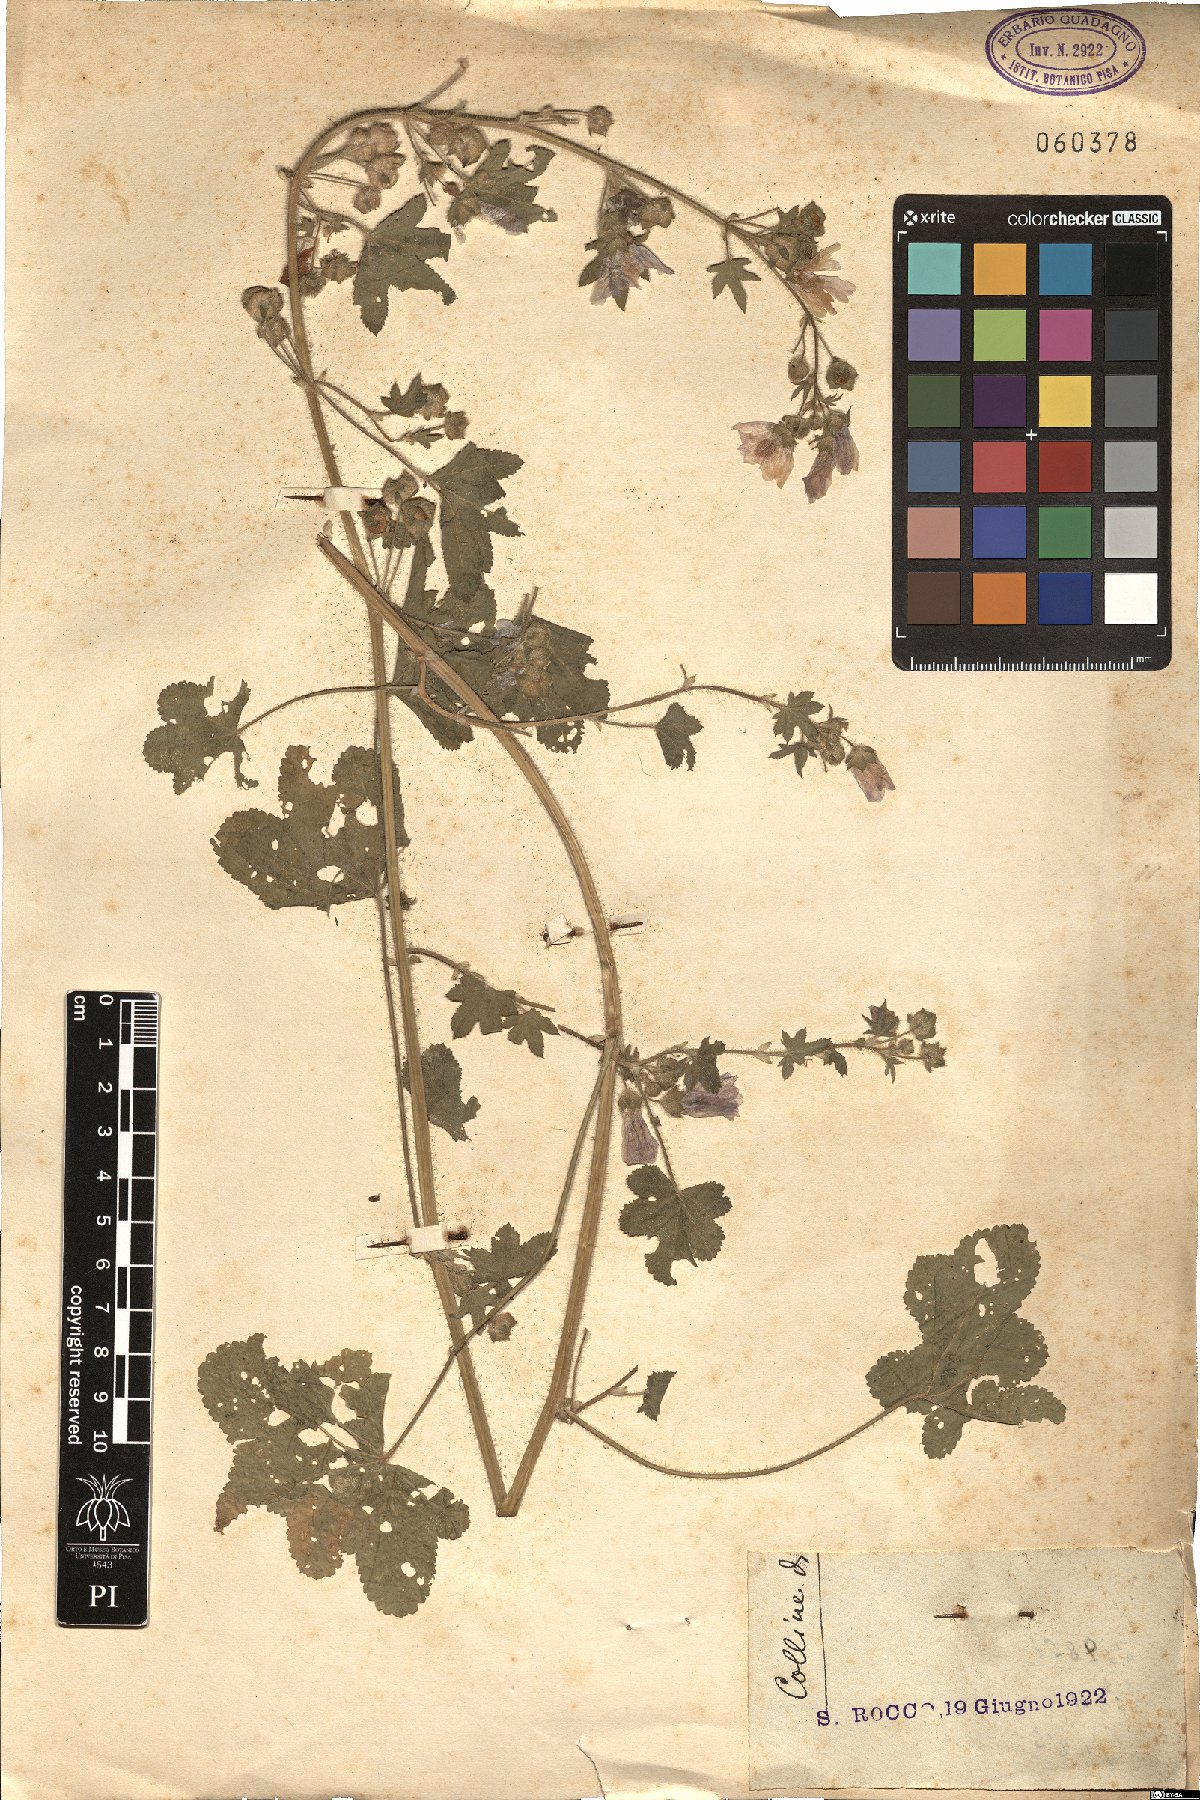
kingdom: Plantae
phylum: Tracheophyta
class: Magnoliopsida
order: Malvales
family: Malvaceae
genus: Malva
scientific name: Malva
